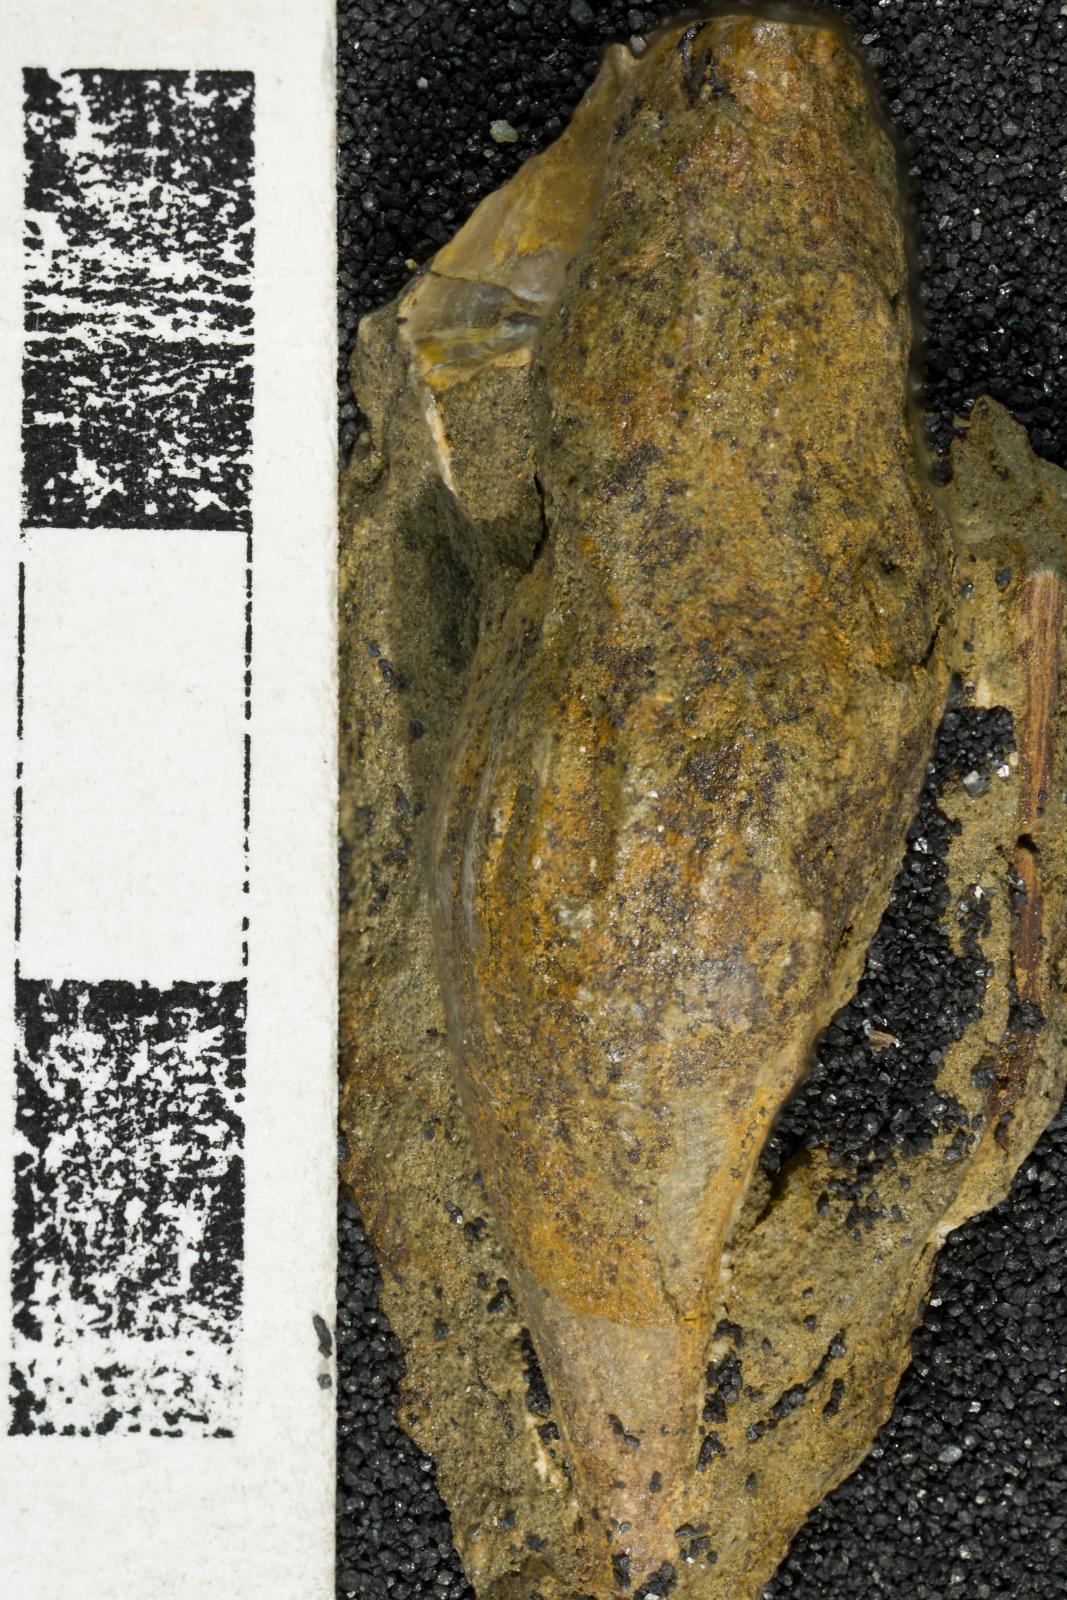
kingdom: Animalia
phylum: Mollusca
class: Gastropoda
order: Neogastropoda
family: Fasciolariidae
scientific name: Fasciolariidae
